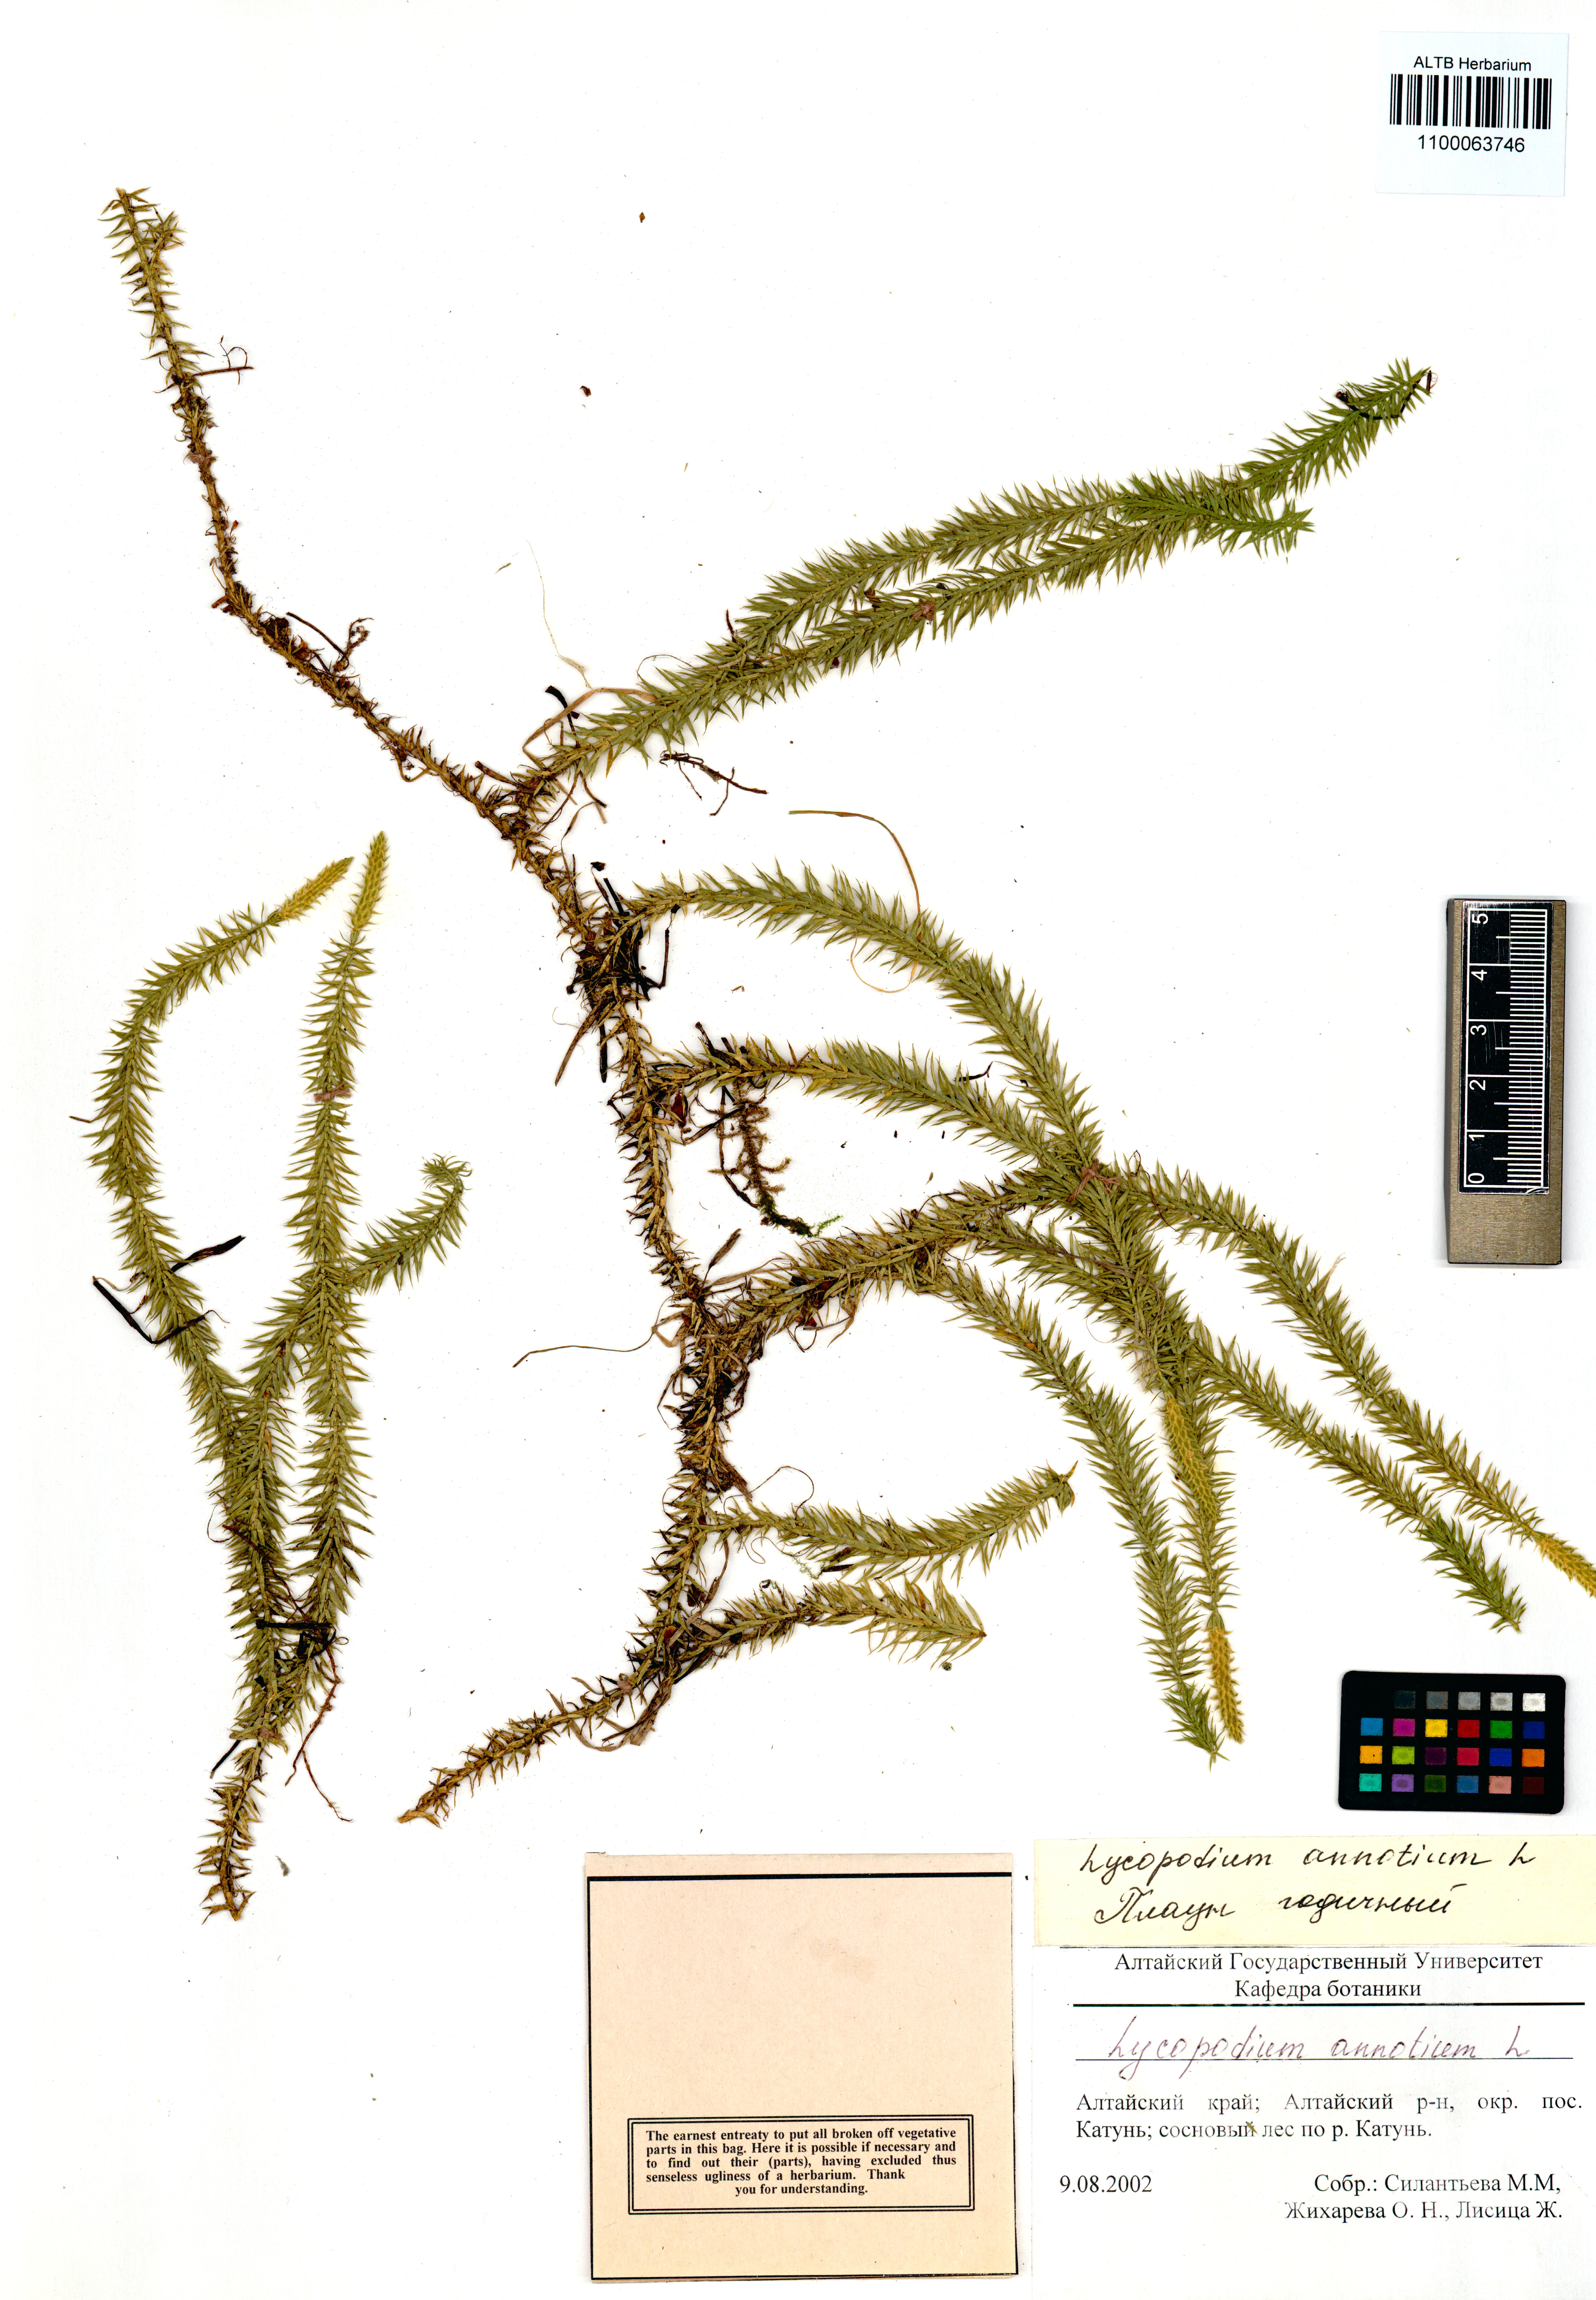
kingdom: Plantae
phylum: Tracheophyta
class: Lycopodiopsida
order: Lycopodiales
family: Lycopodiaceae
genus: Spinulum
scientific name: Spinulum annotinum
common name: Interrupted club-moss
